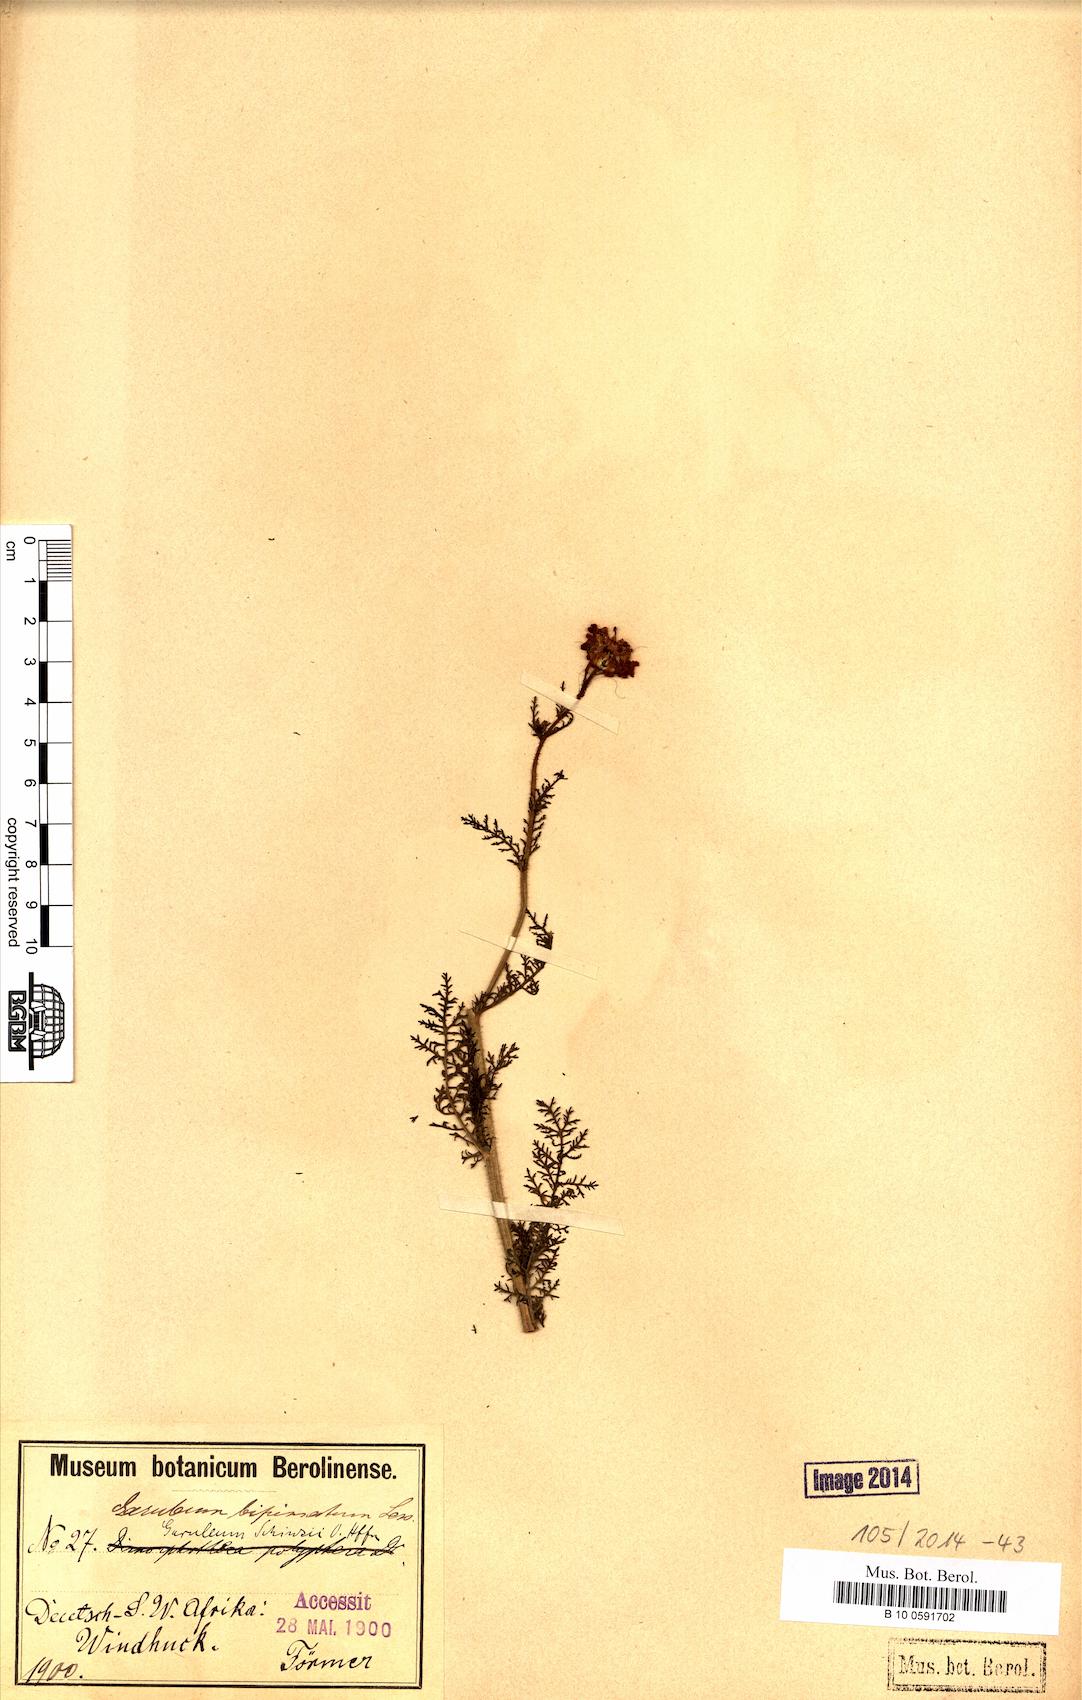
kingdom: Plantae
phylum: Tracheophyta
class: Magnoliopsida
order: Asterales
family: Asteraceae
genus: Garuleum
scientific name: Garuleum schinzii
